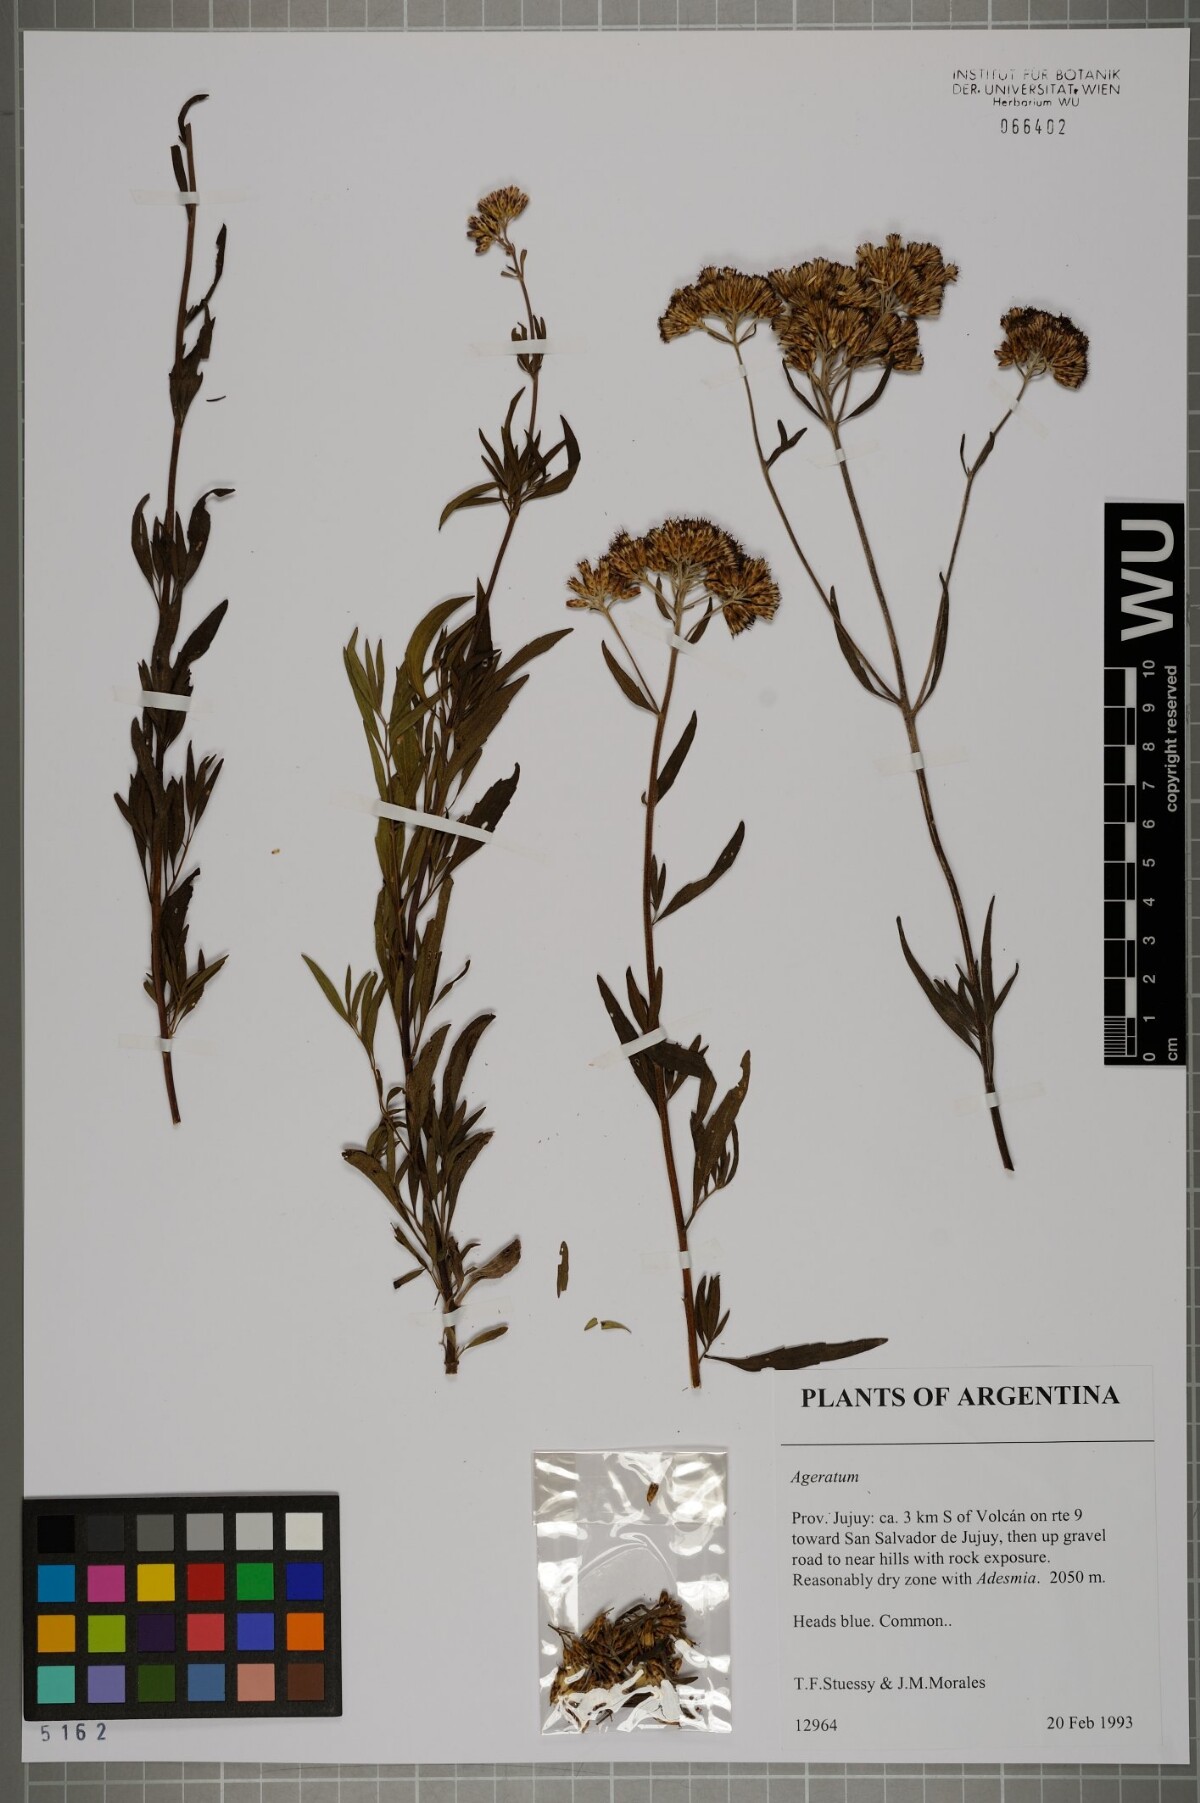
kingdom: Plantae
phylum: Tracheophyta
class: Magnoliopsida
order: Asterales
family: Asteraceae
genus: Ageratum
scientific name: Ageratum
